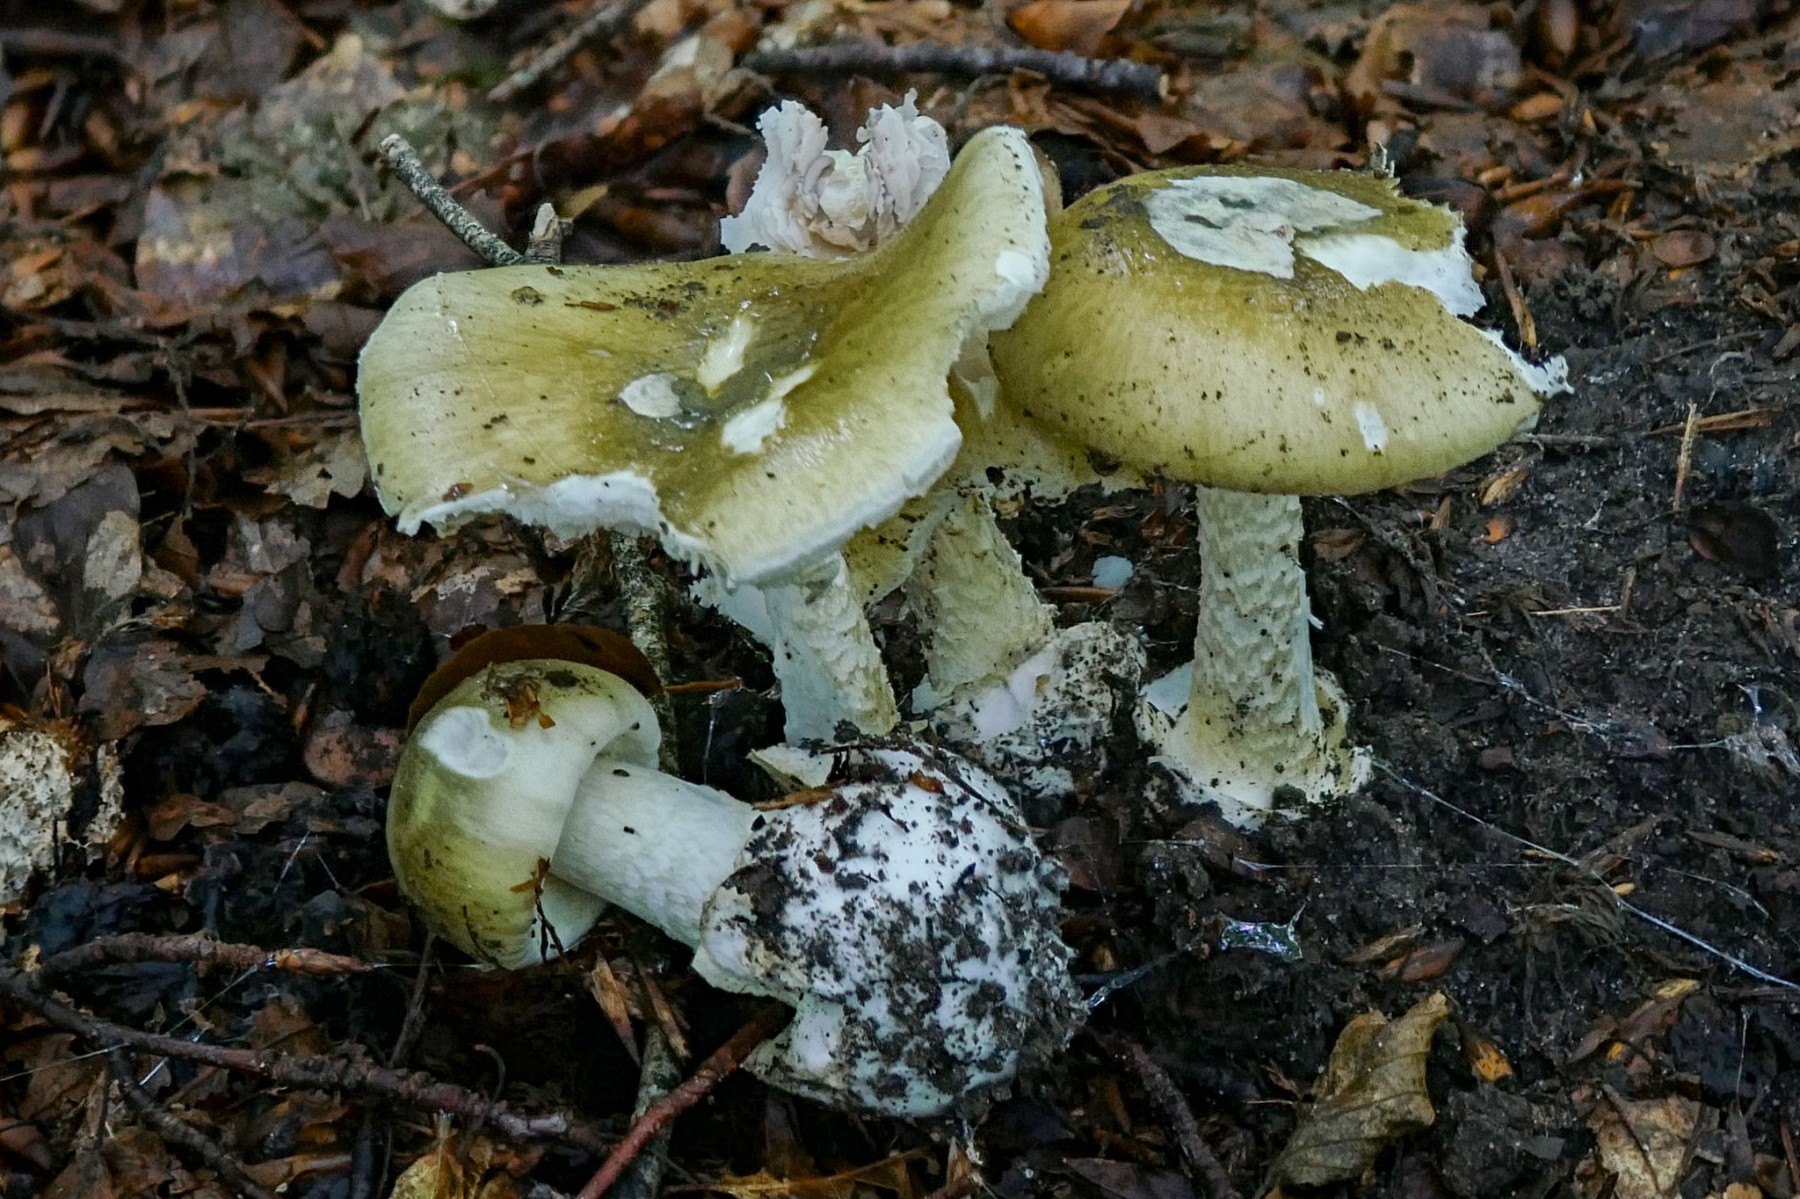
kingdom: Fungi
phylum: Basidiomycota
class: Agaricomycetes
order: Agaricales
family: Amanitaceae
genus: Amanita
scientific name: Amanita phalloides
